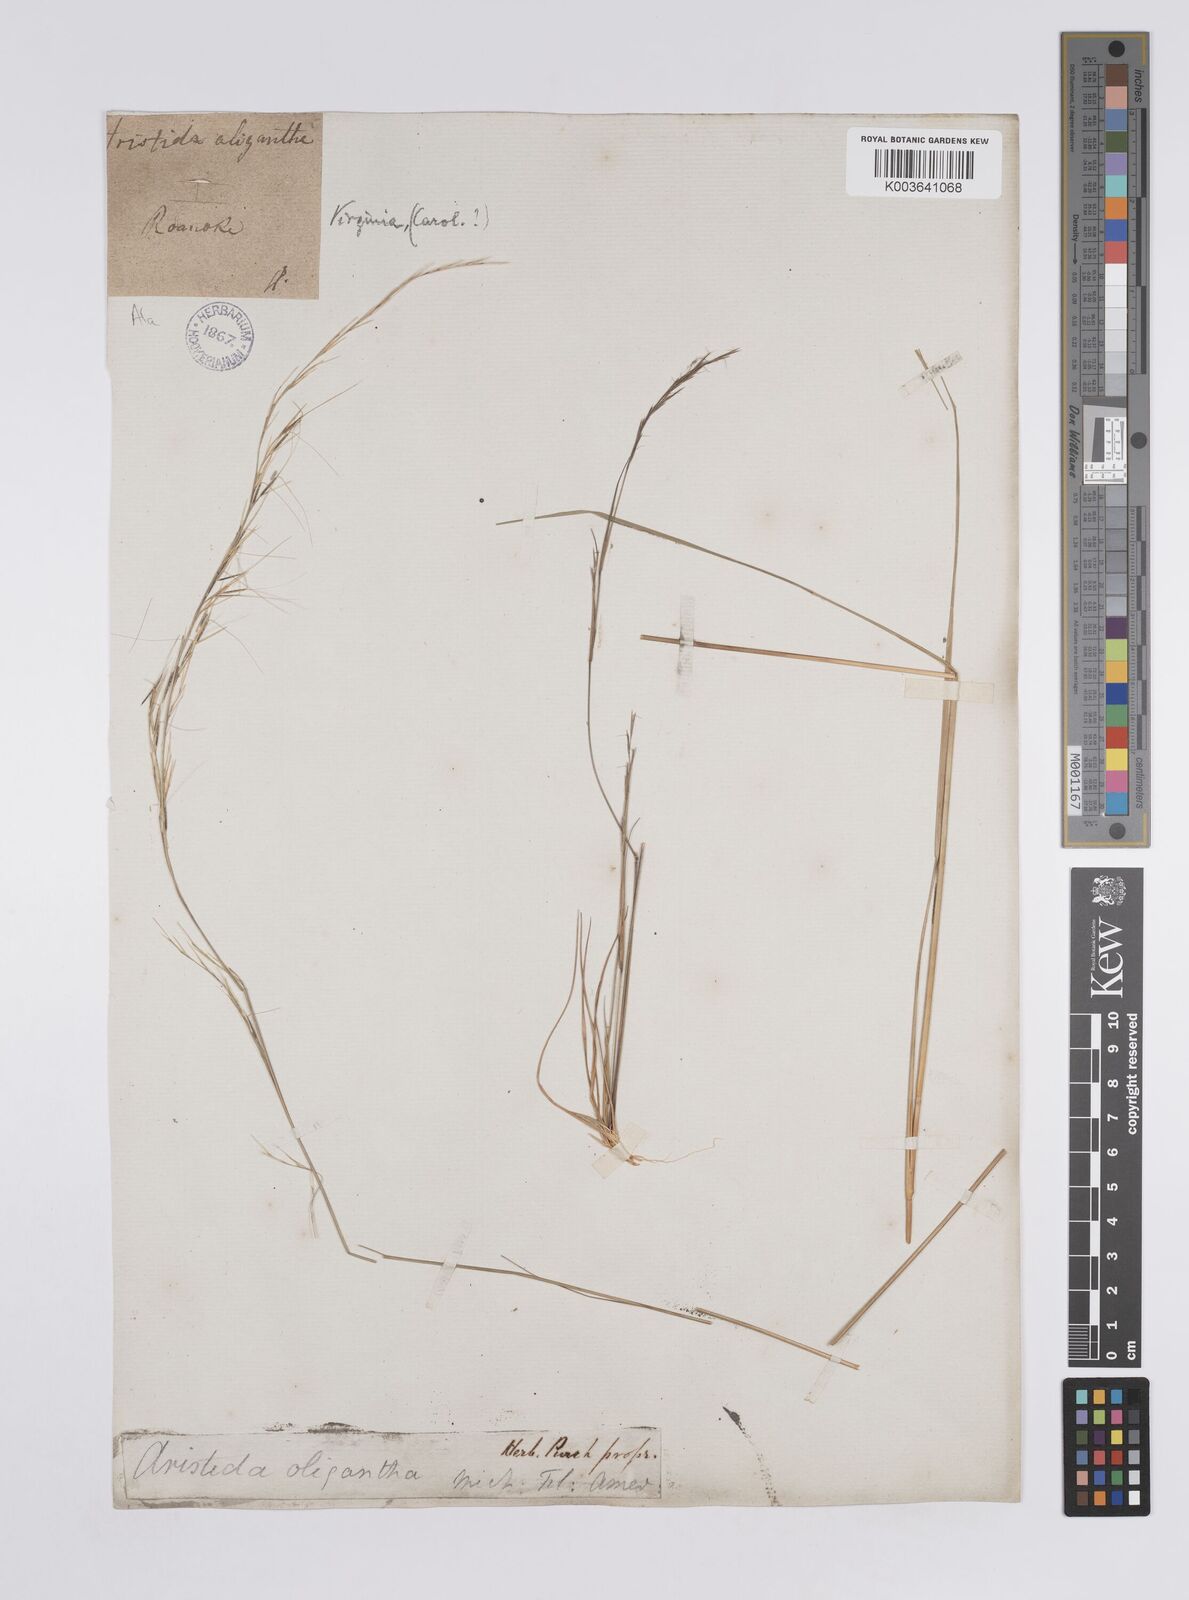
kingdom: Plantae
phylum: Tracheophyta
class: Liliopsida
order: Poales
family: Poaceae
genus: Aristida
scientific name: Aristida purpurascens
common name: Arrow-feather
